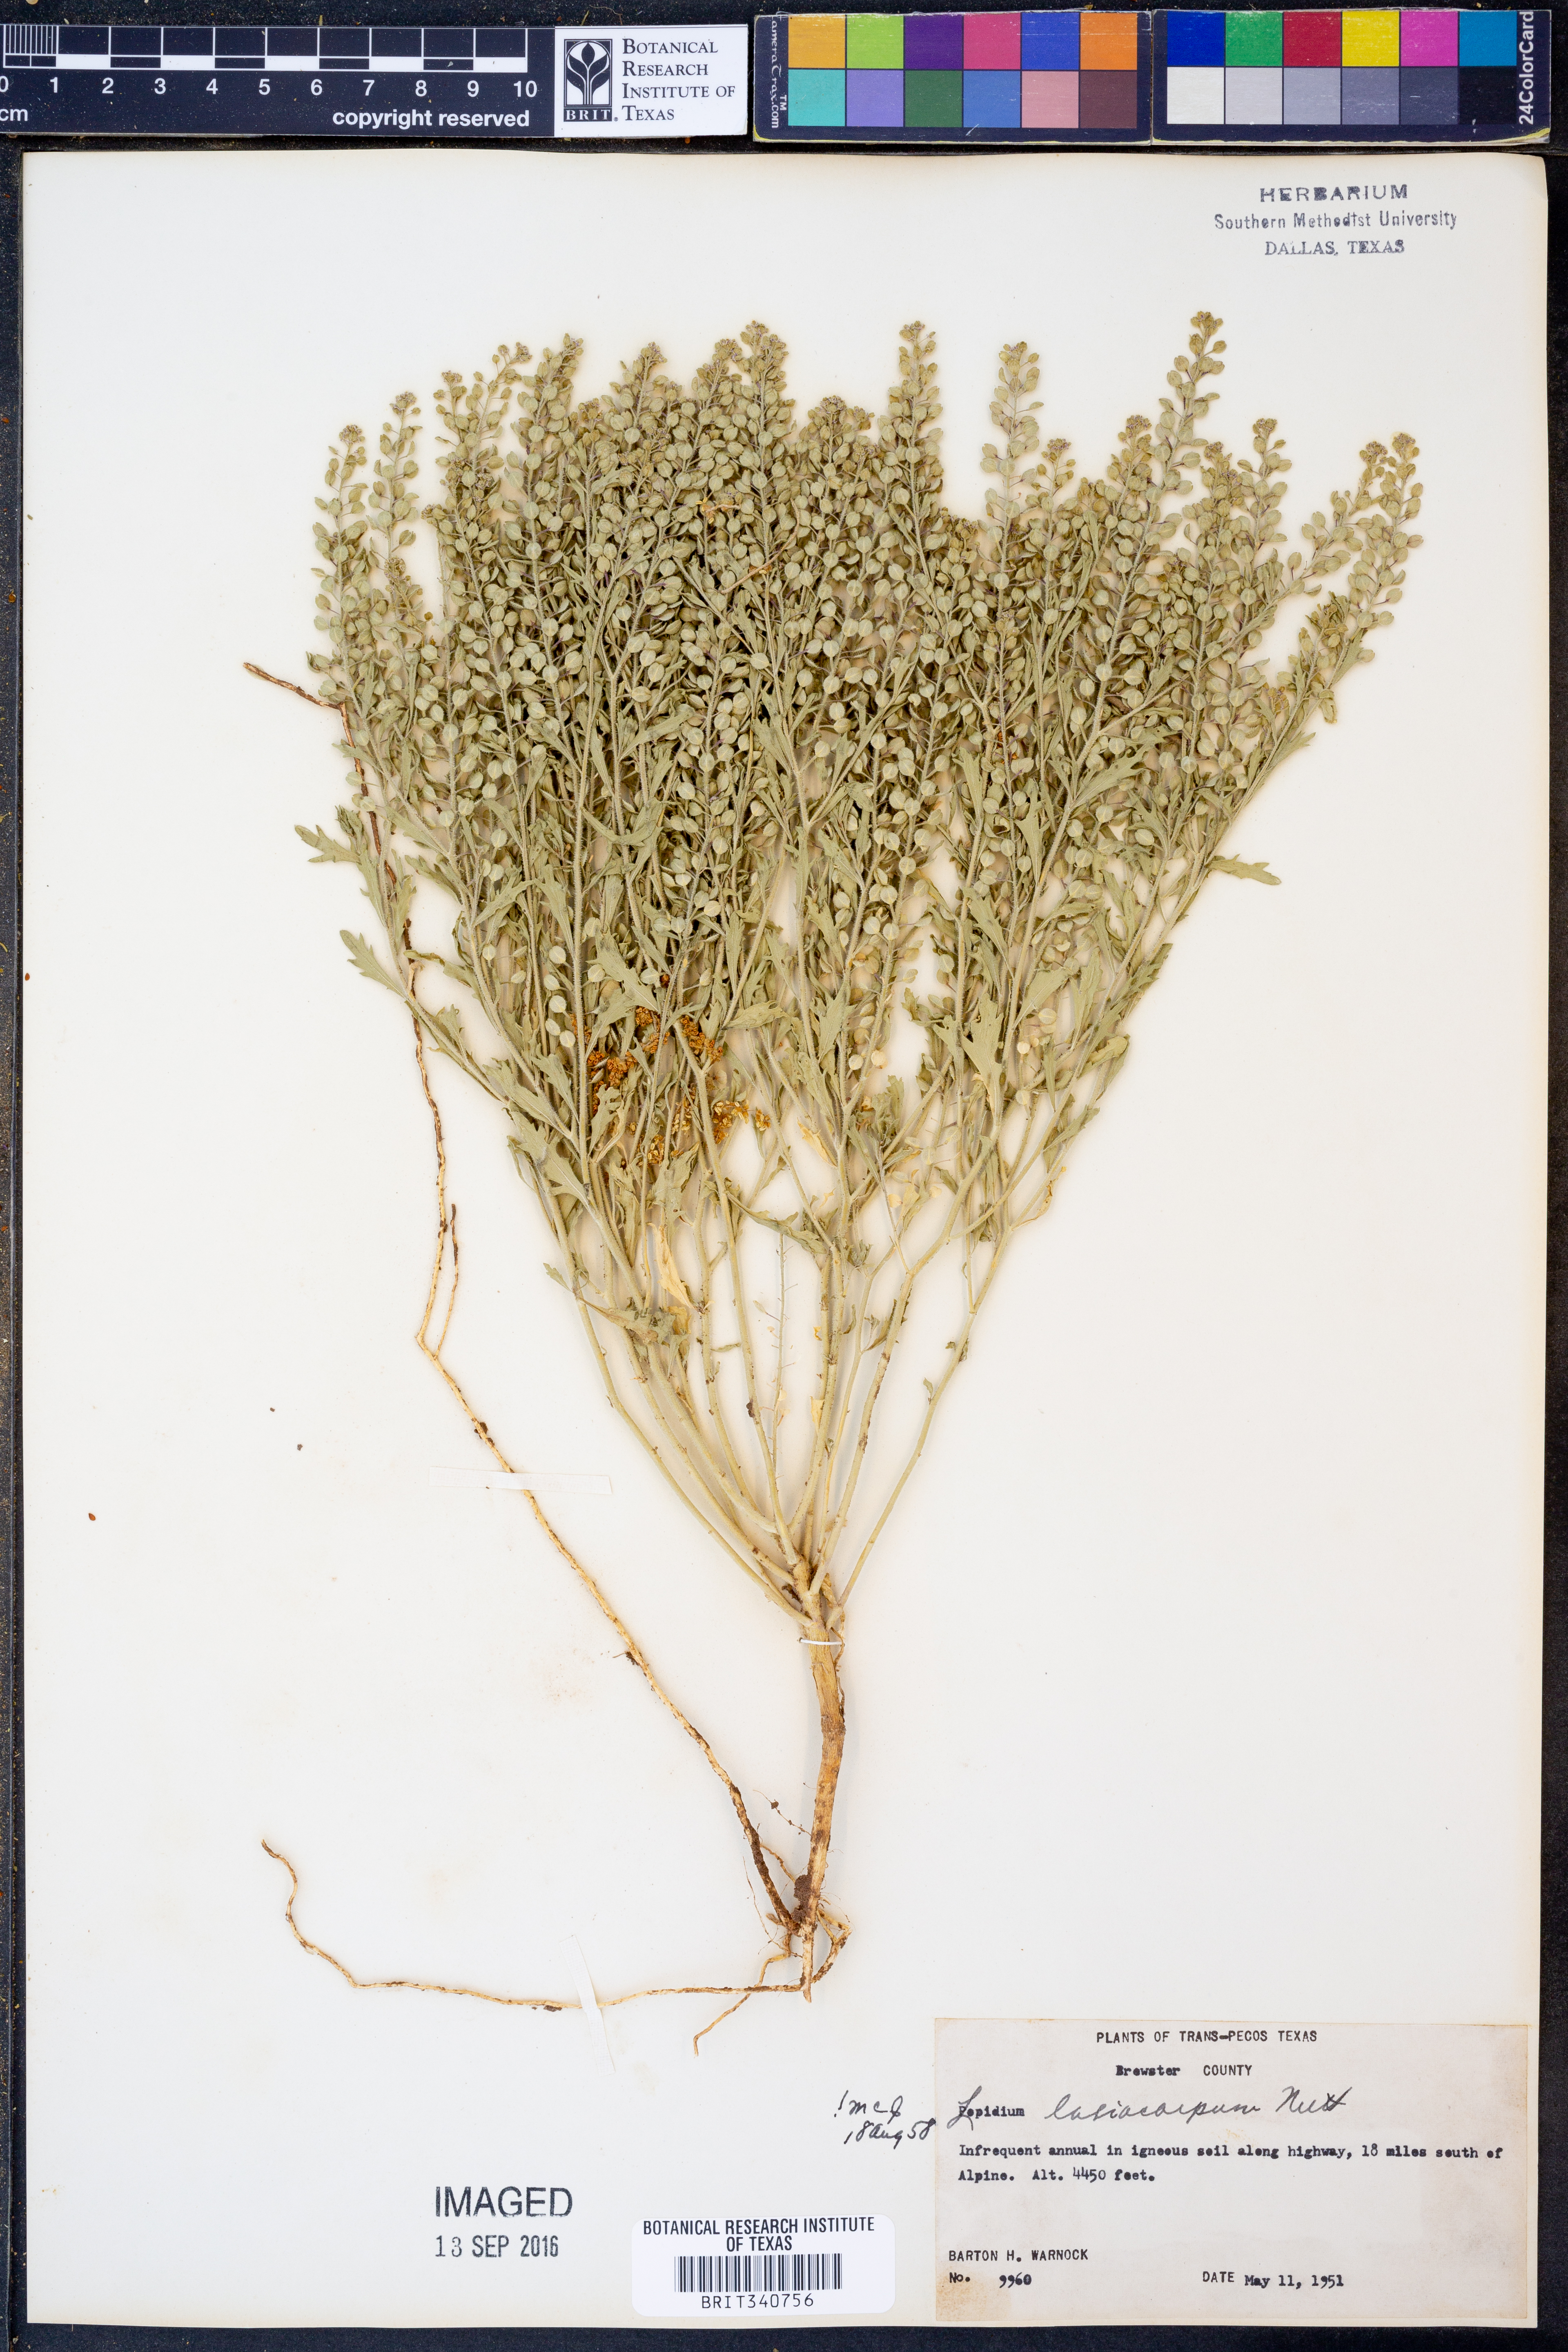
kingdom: Plantae
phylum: Tracheophyta
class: Magnoliopsida
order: Brassicales
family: Brassicaceae
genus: Lepidium
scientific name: Lepidium lasiocarpum
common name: Hairy-pod pepperwort
